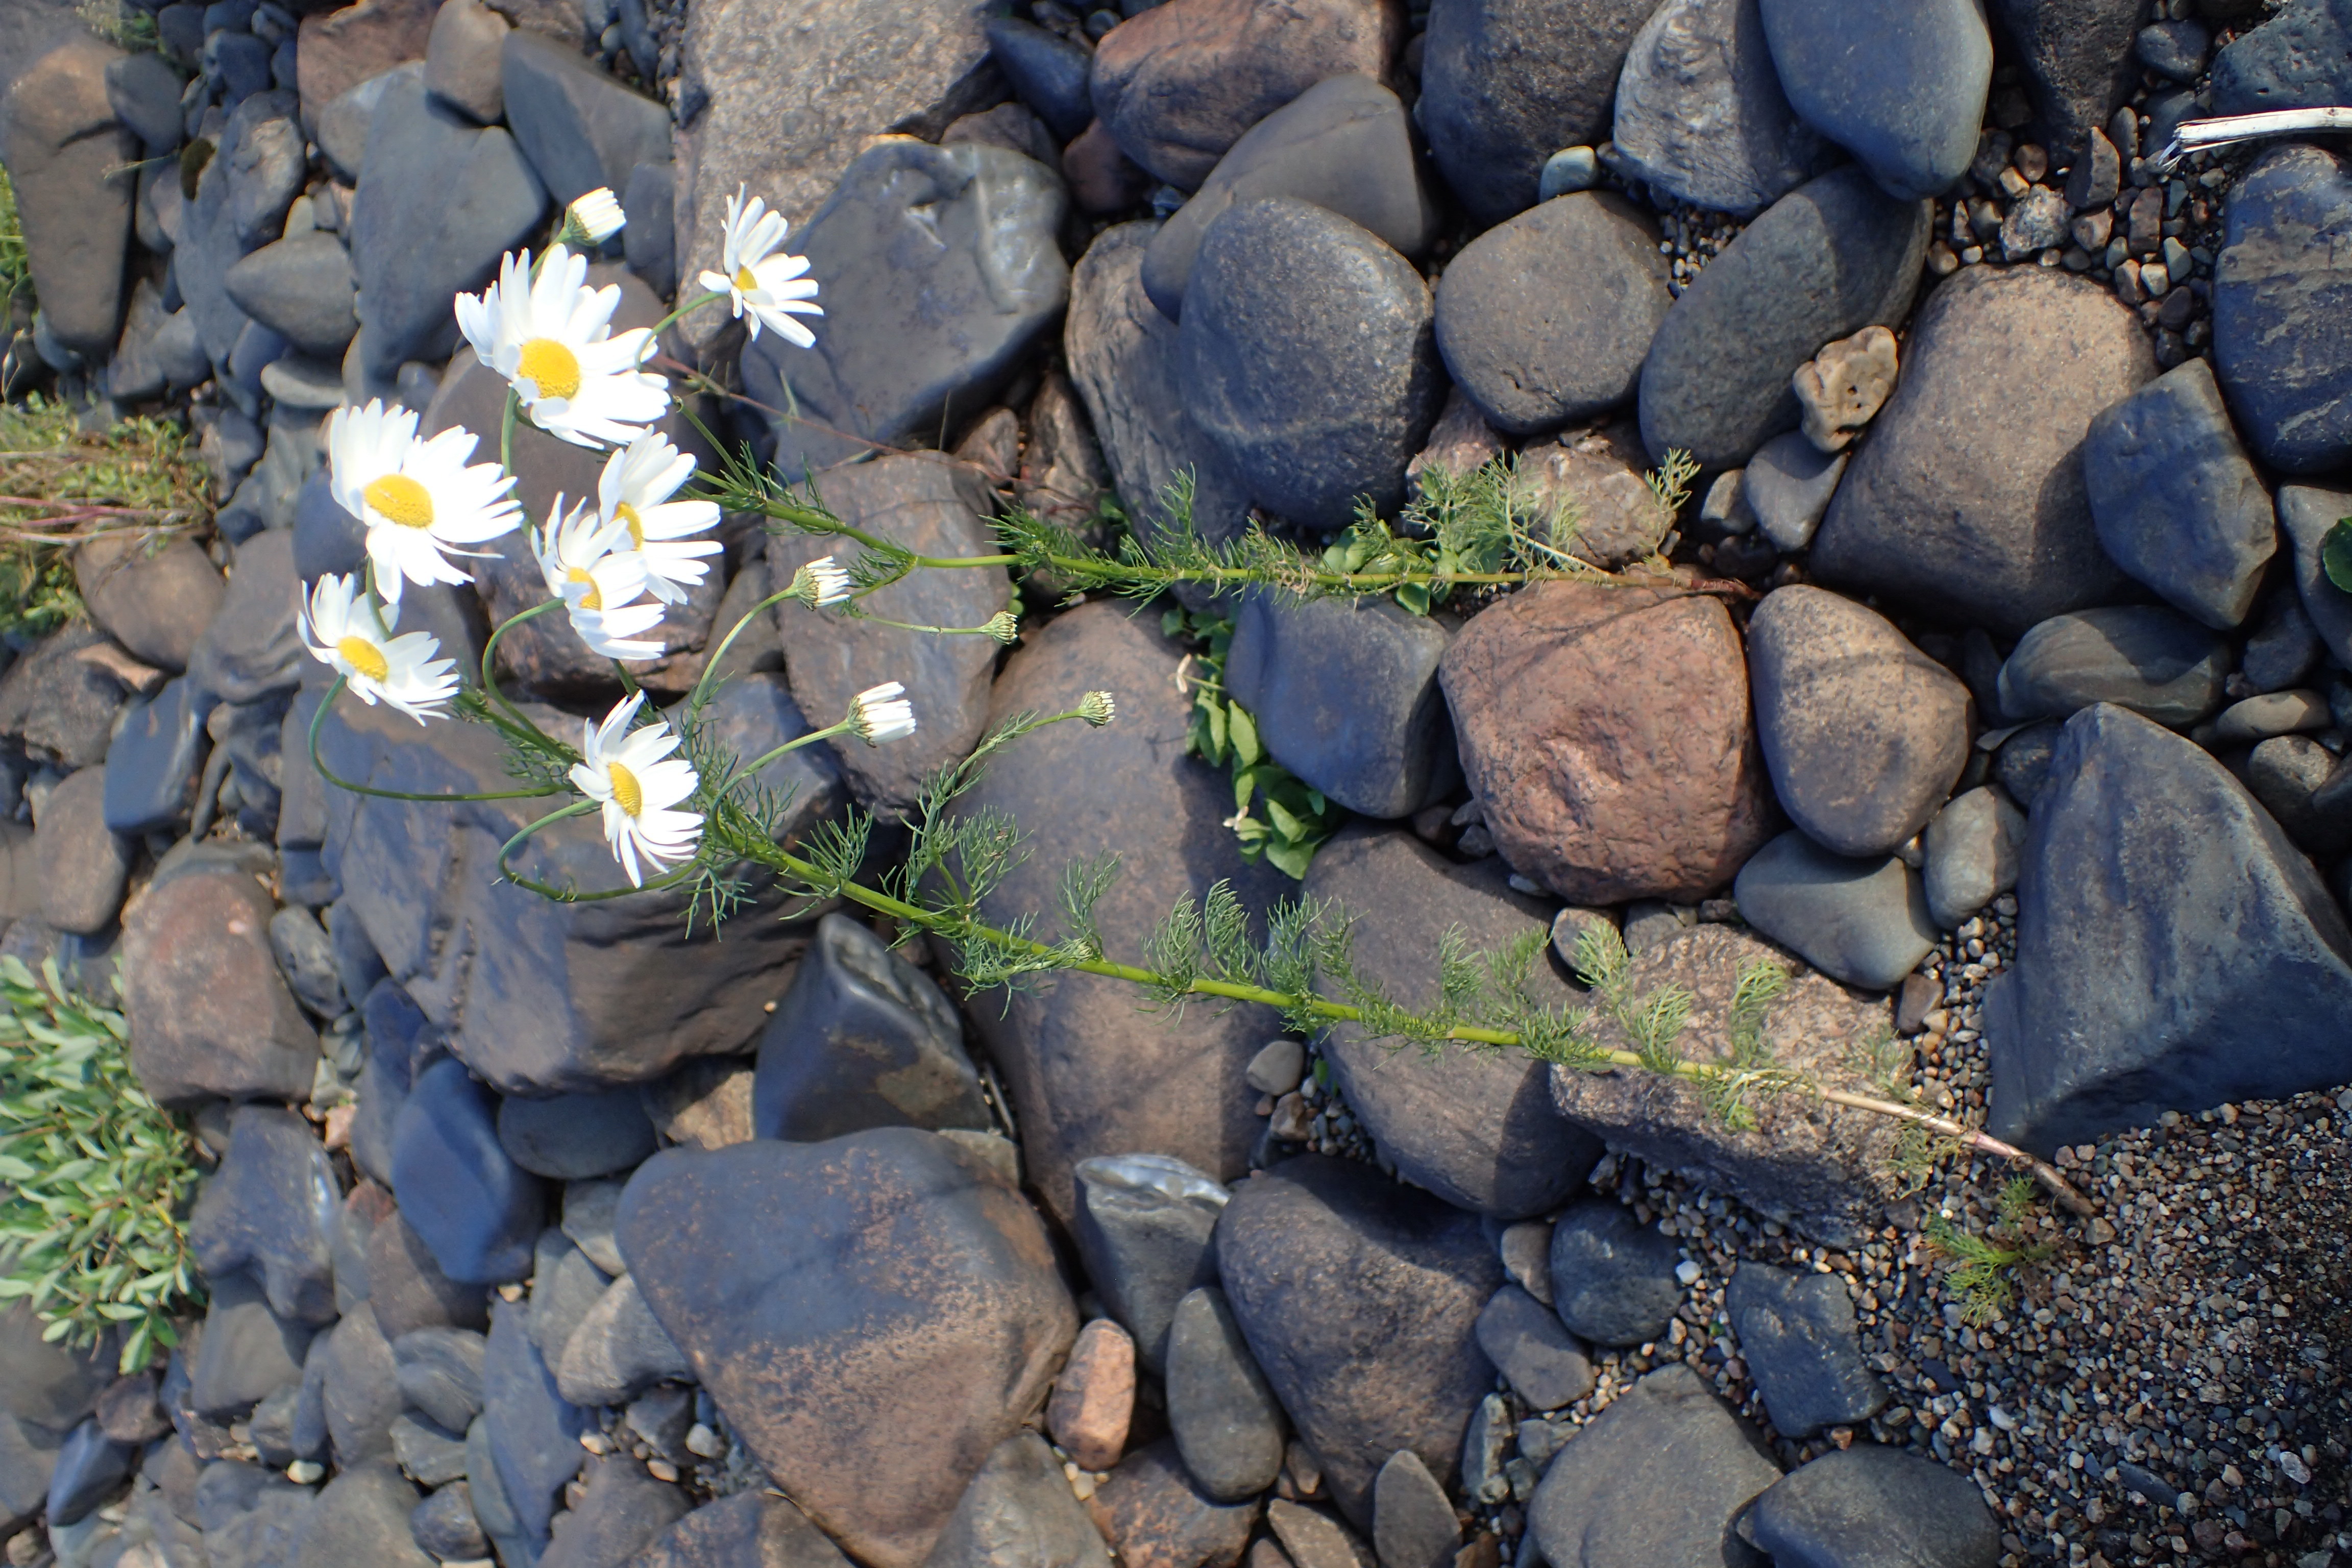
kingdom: Plantae
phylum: Tracheophyta
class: Magnoliopsida
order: Asterales
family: Asteraceae
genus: Tripleurospermum
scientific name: Tripleurospermum subpolare
